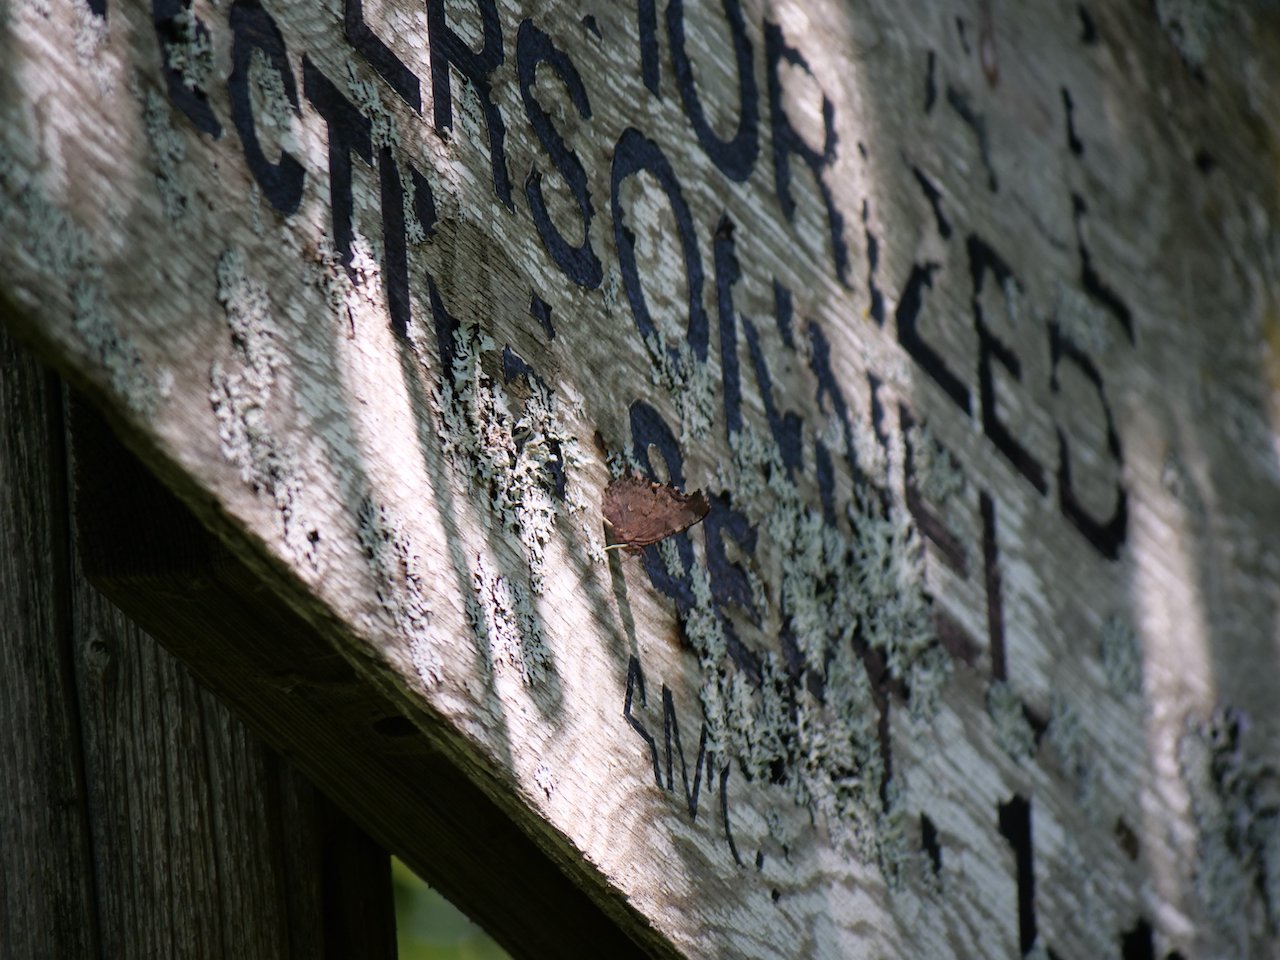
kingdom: Animalia
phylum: Arthropoda
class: Insecta
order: Lepidoptera
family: Nymphalidae
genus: Polygonia
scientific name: Polygonia
